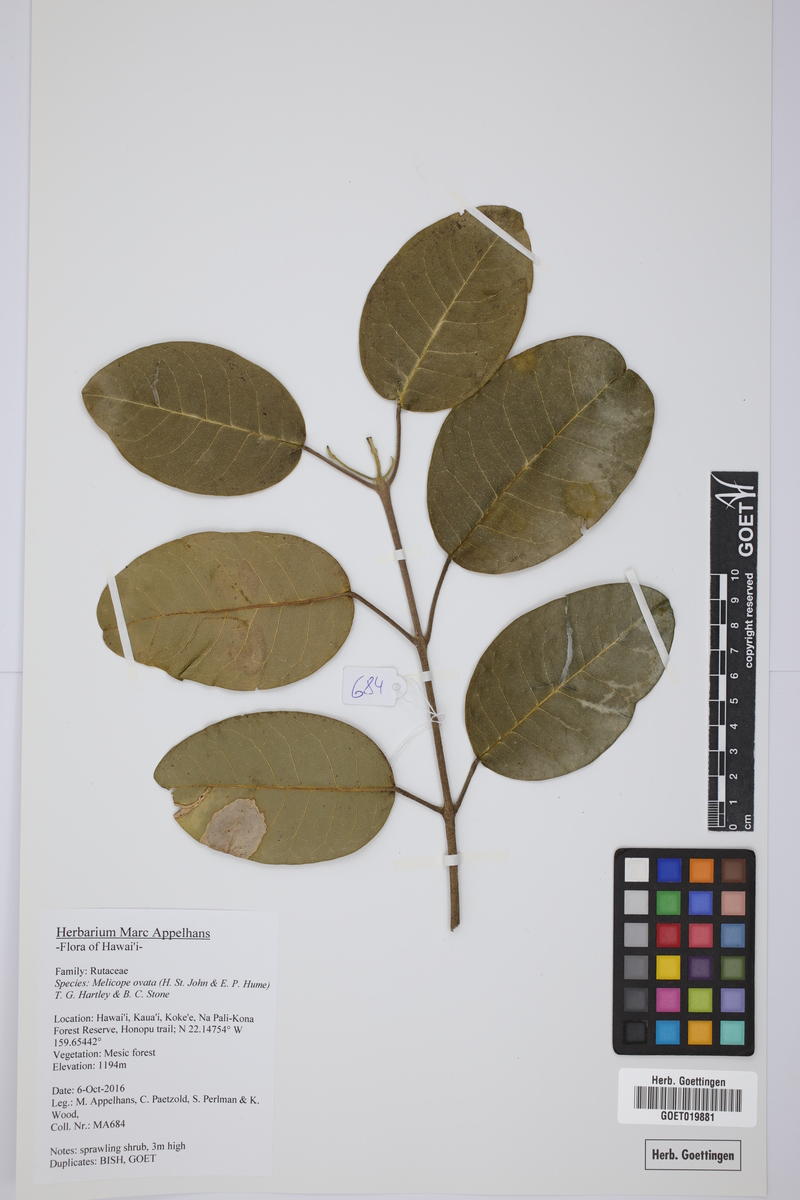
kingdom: Plantae
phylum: Tracheophyta
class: Magnoliopsida
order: Sapindales
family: Rutaceae
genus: Melicope
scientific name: Melicope ovata
